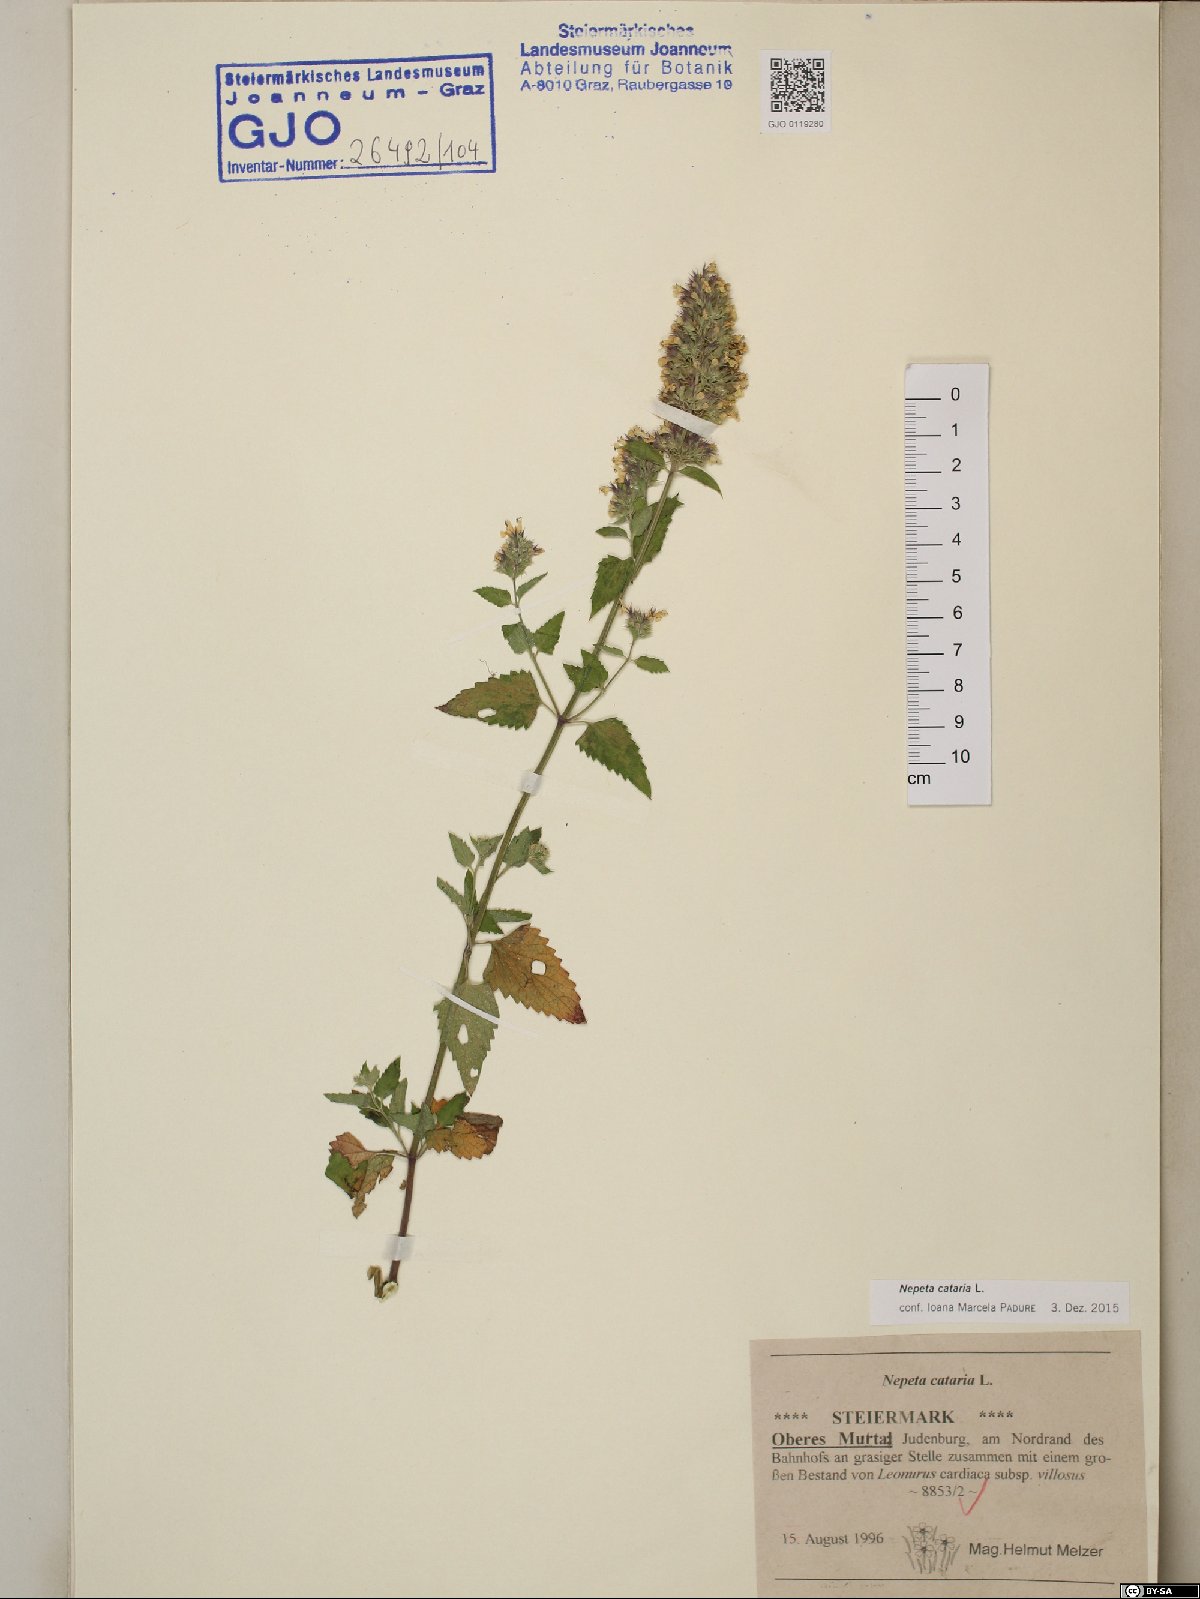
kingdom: Plantae
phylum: Tracheophyta
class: Magnoliopsida
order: Lamiales
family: Lamiaceae
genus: Nepeta
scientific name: Nepeta cataria
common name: Catnip
